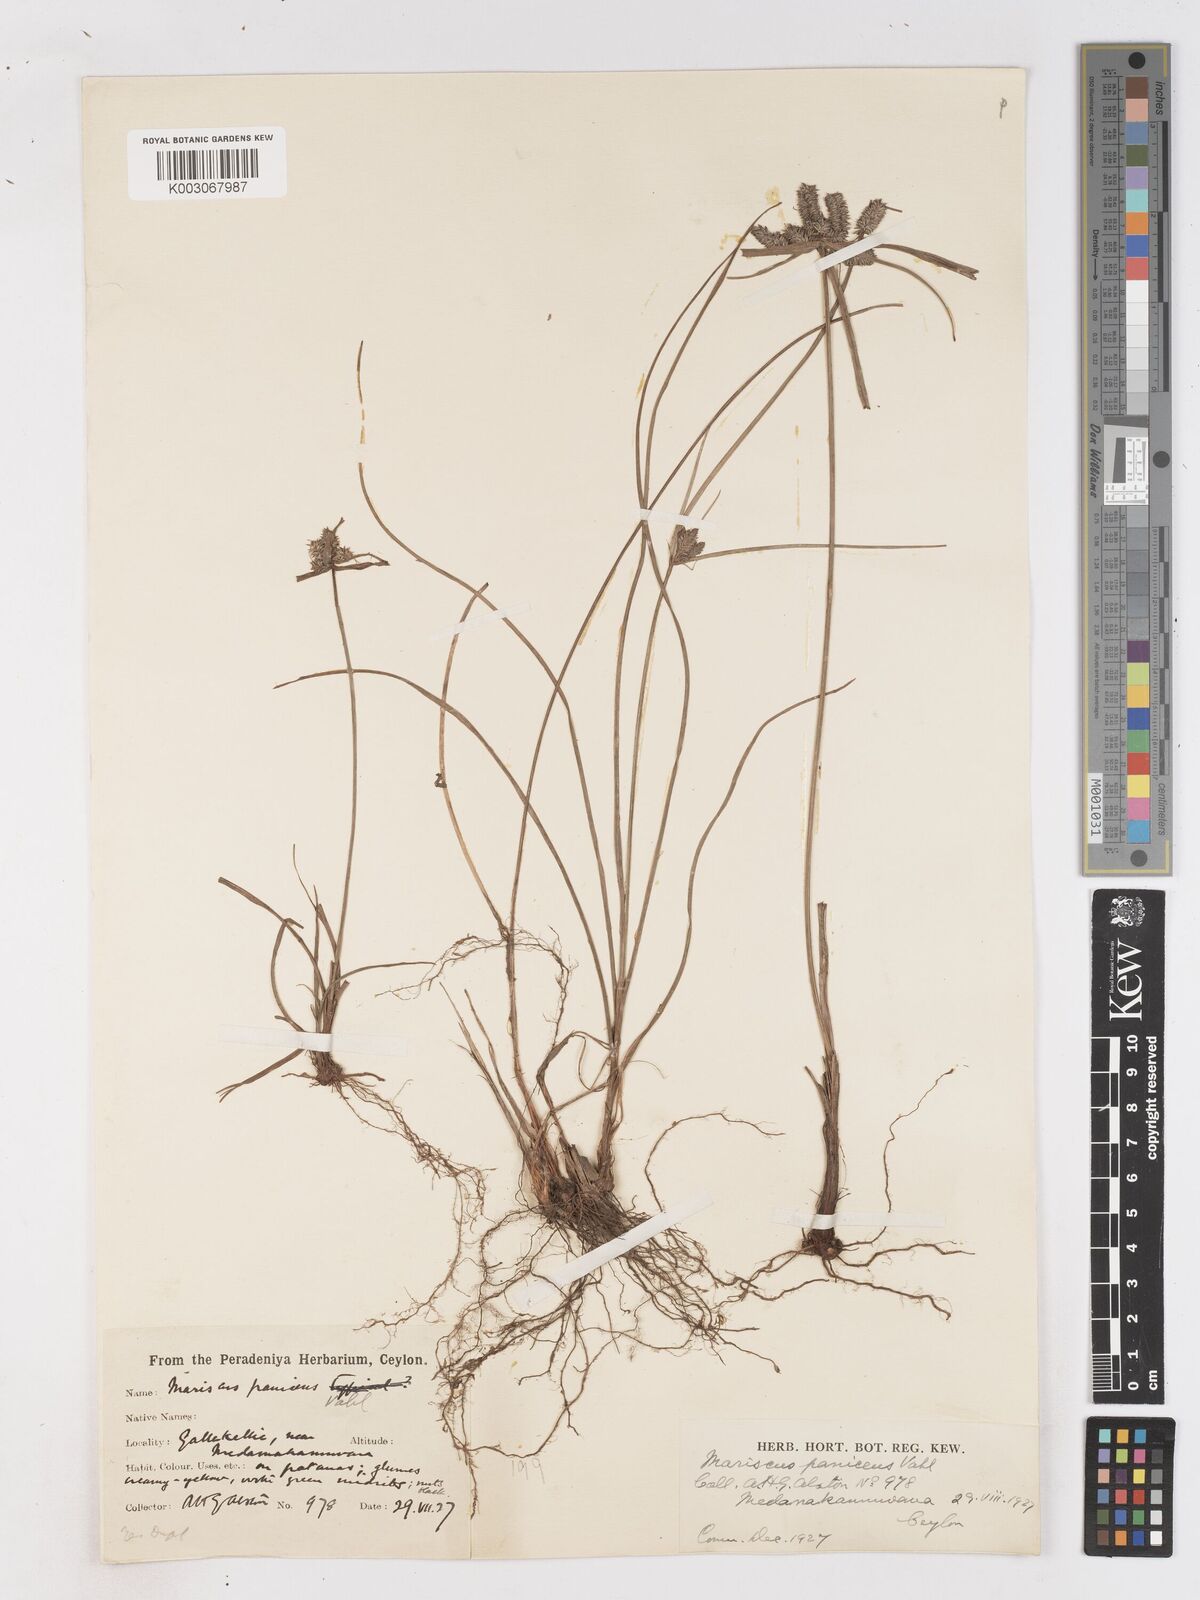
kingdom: Plantae
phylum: Tracheophyta
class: Liliopsida
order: Poales
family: Cyperaceae
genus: Cyperus
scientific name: Cyperus paniceus
